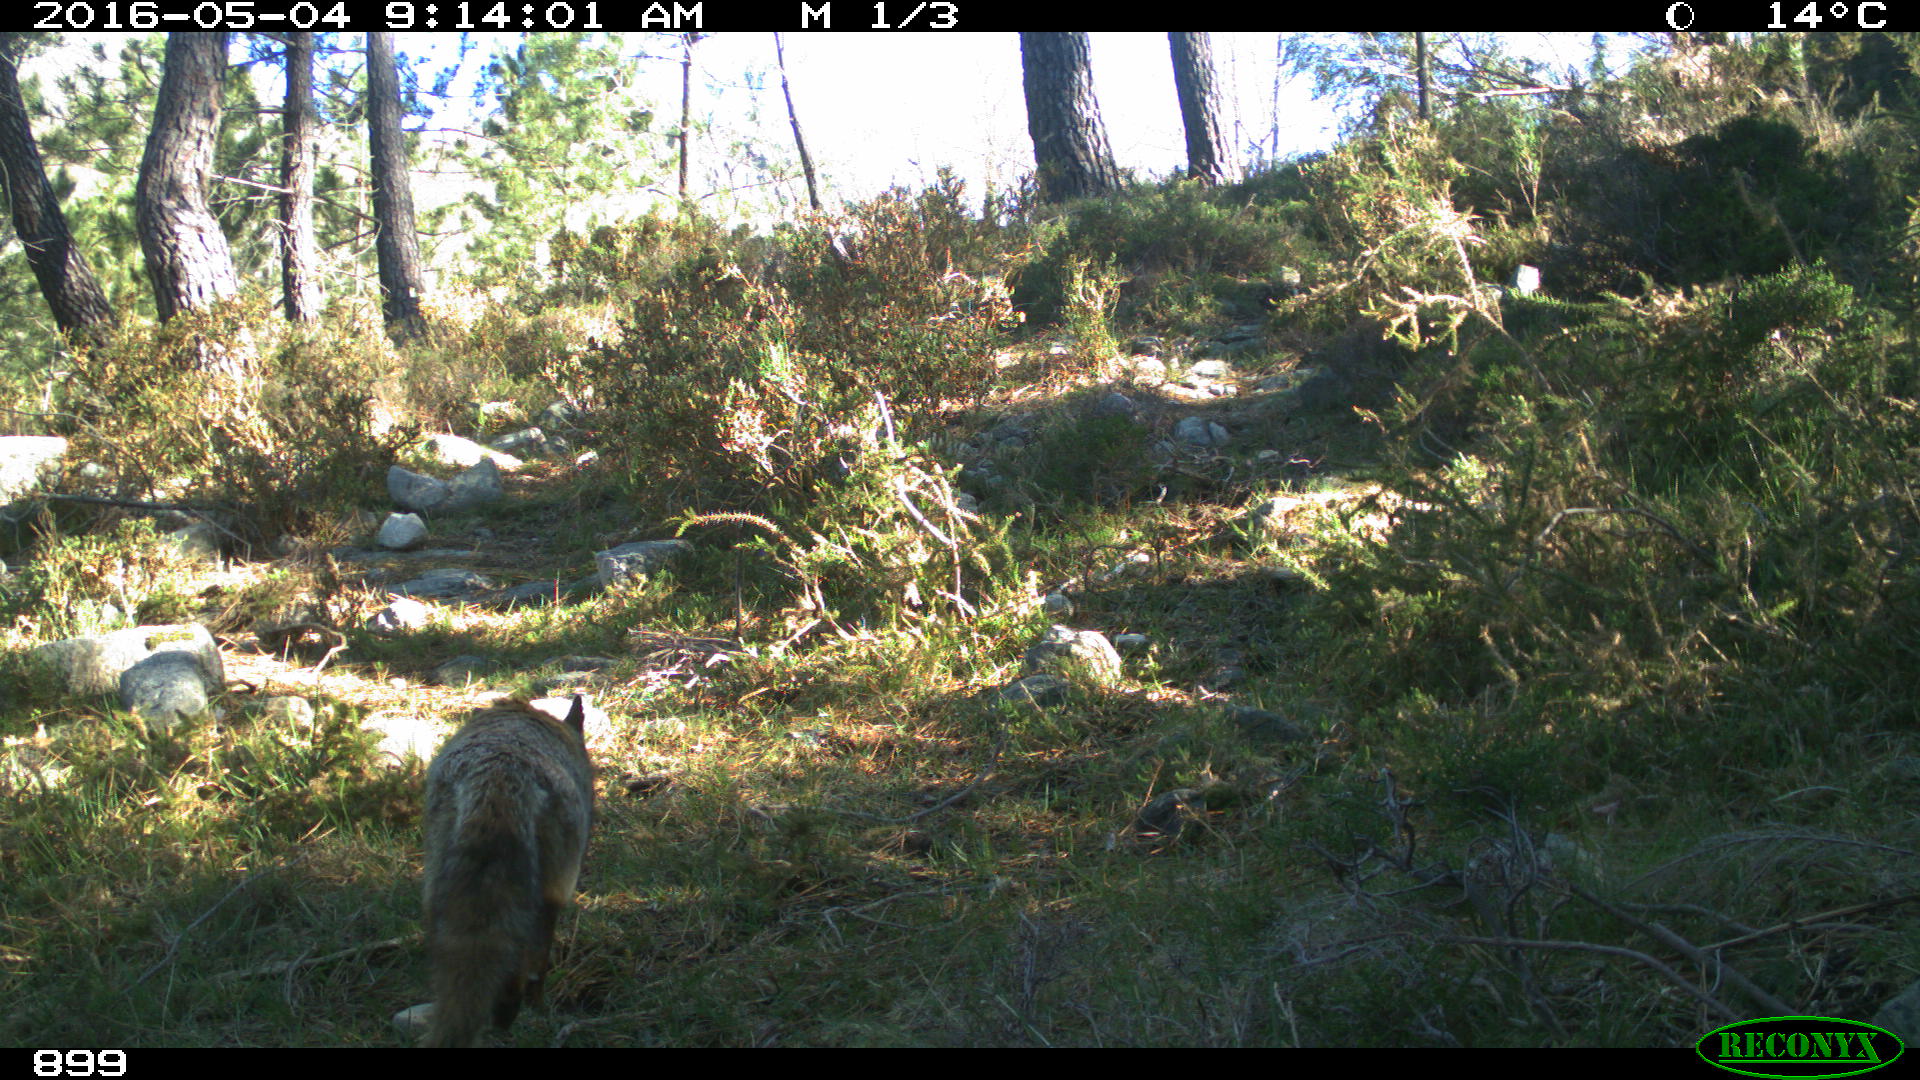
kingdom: Animalia
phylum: Chordata
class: Mammalia
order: Carnivora
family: Canidae
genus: Vulpes
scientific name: Vulpes vulpes
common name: Red fox
